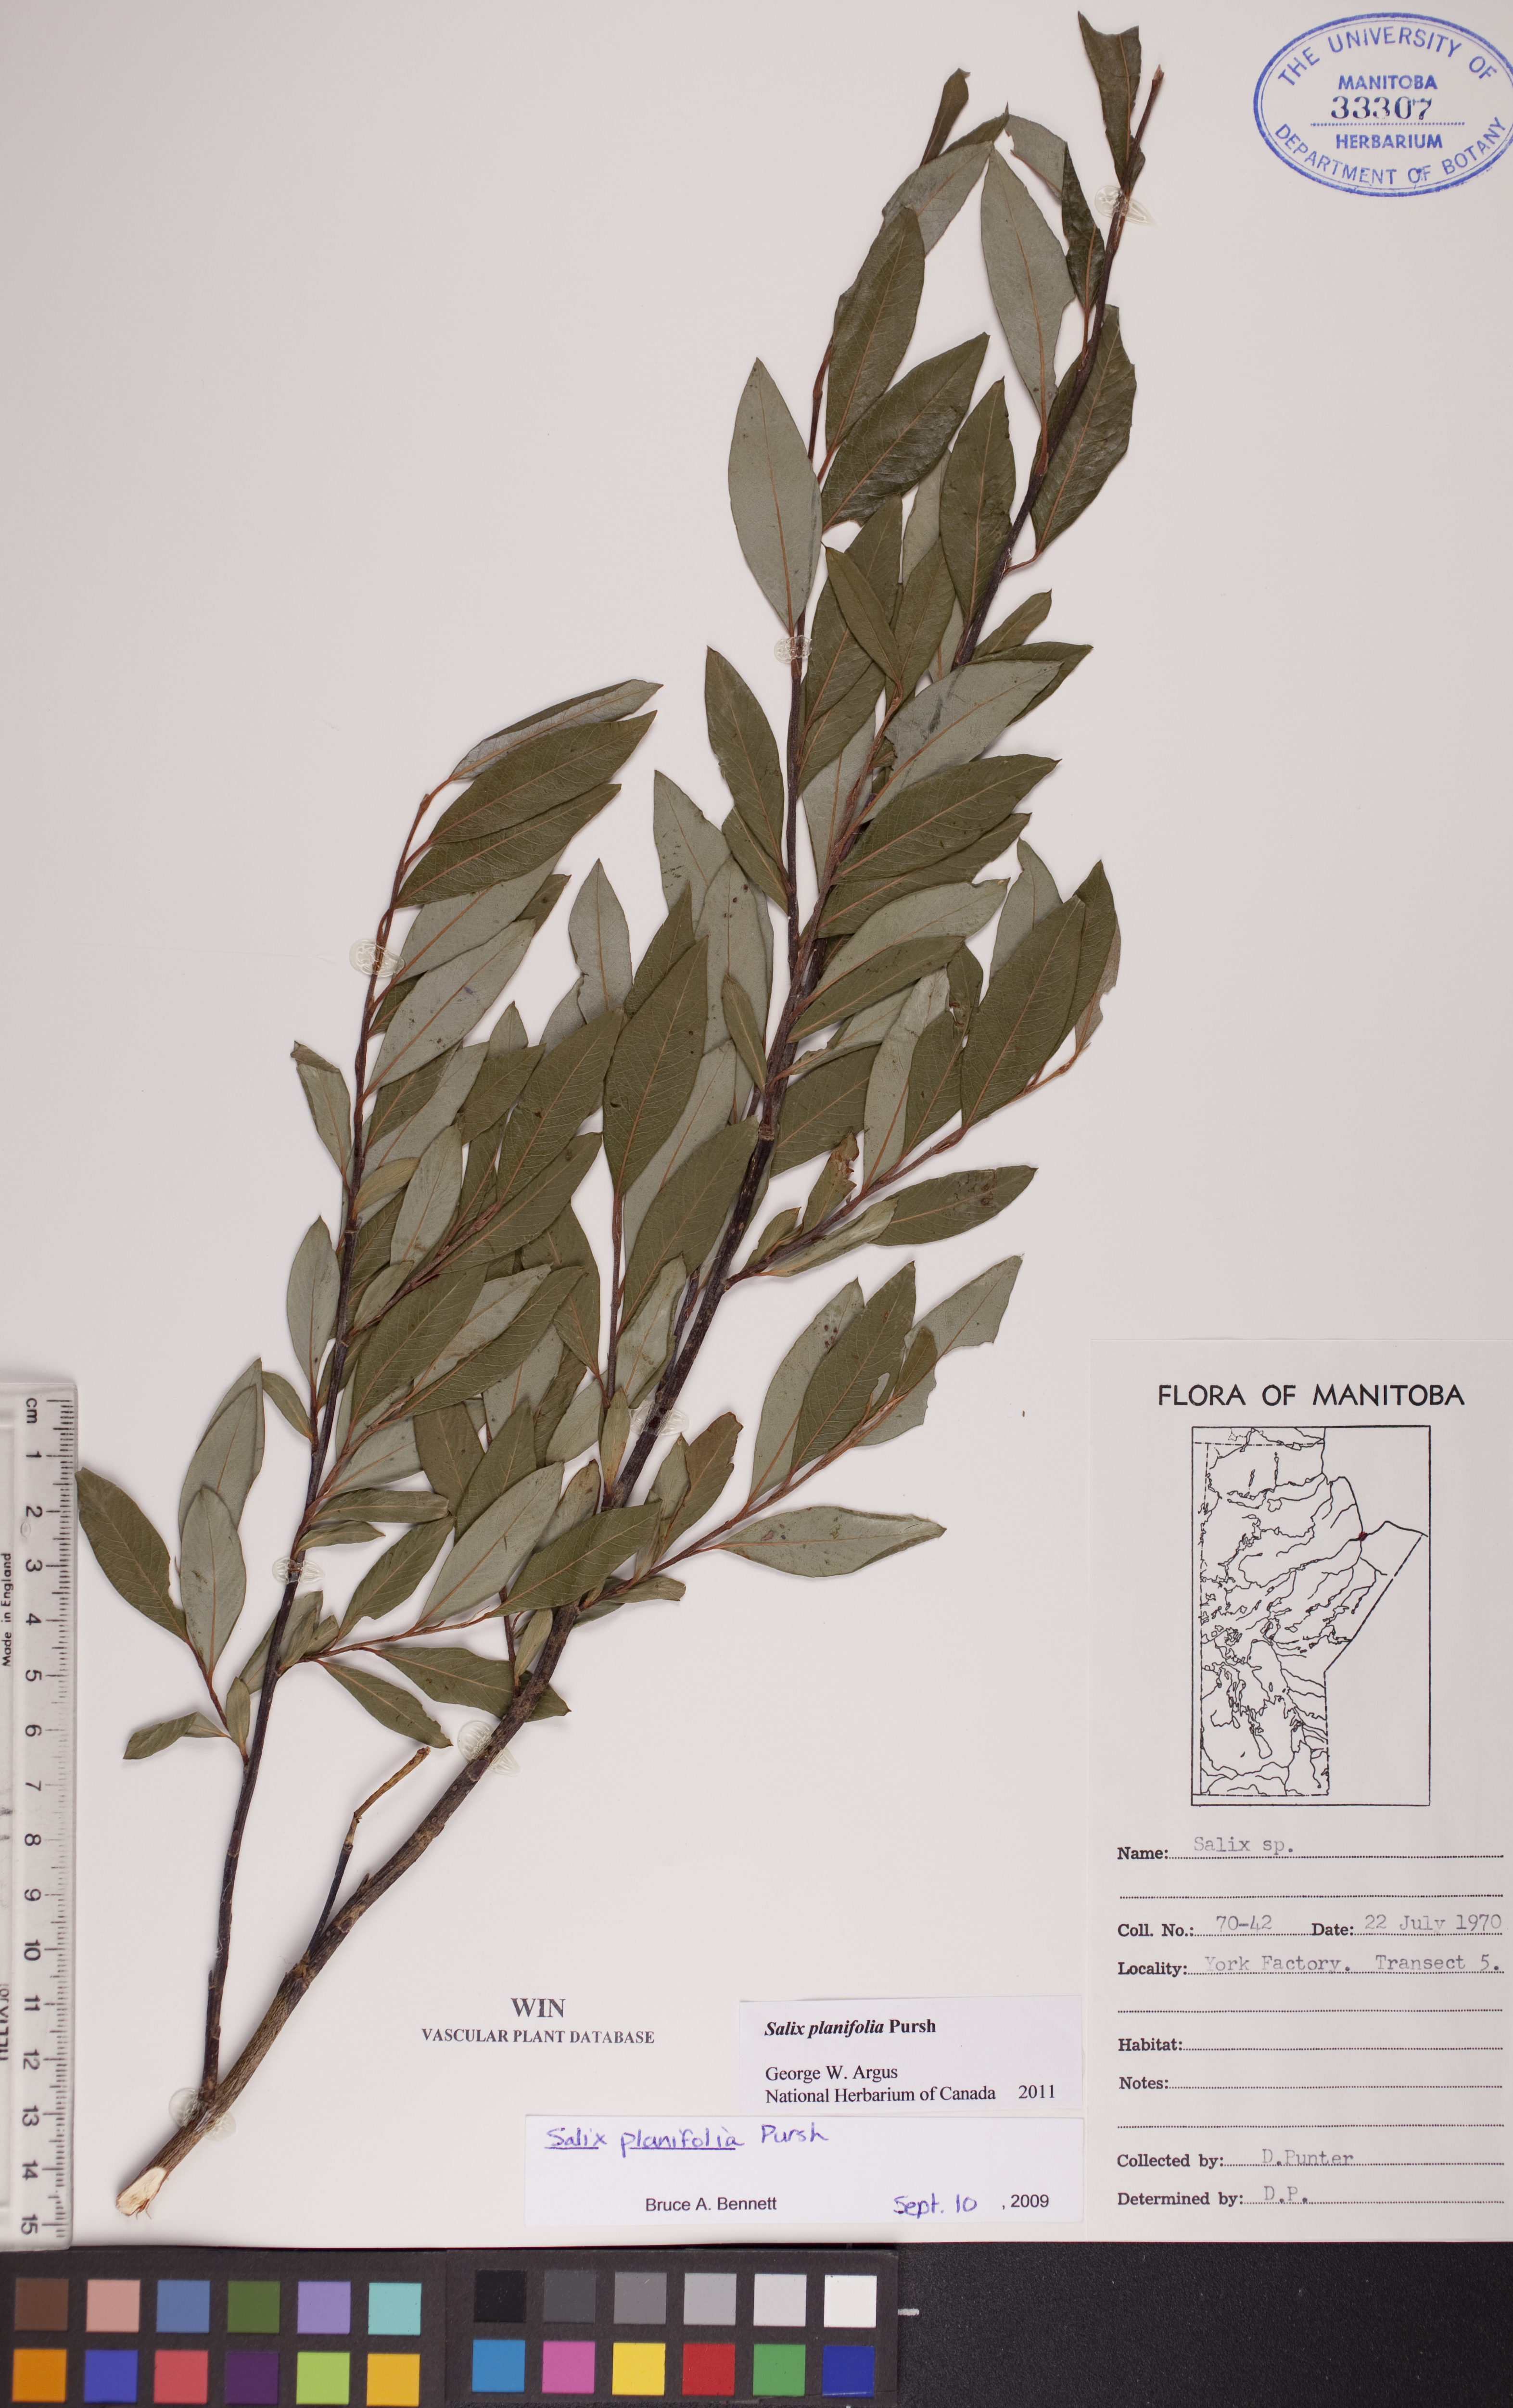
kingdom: Plantae
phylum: Tracheophyta
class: Magnoliopsida
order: Malpighiales
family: Salicaceae
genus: Salix
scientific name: Salix planifolia
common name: Mountain willow
